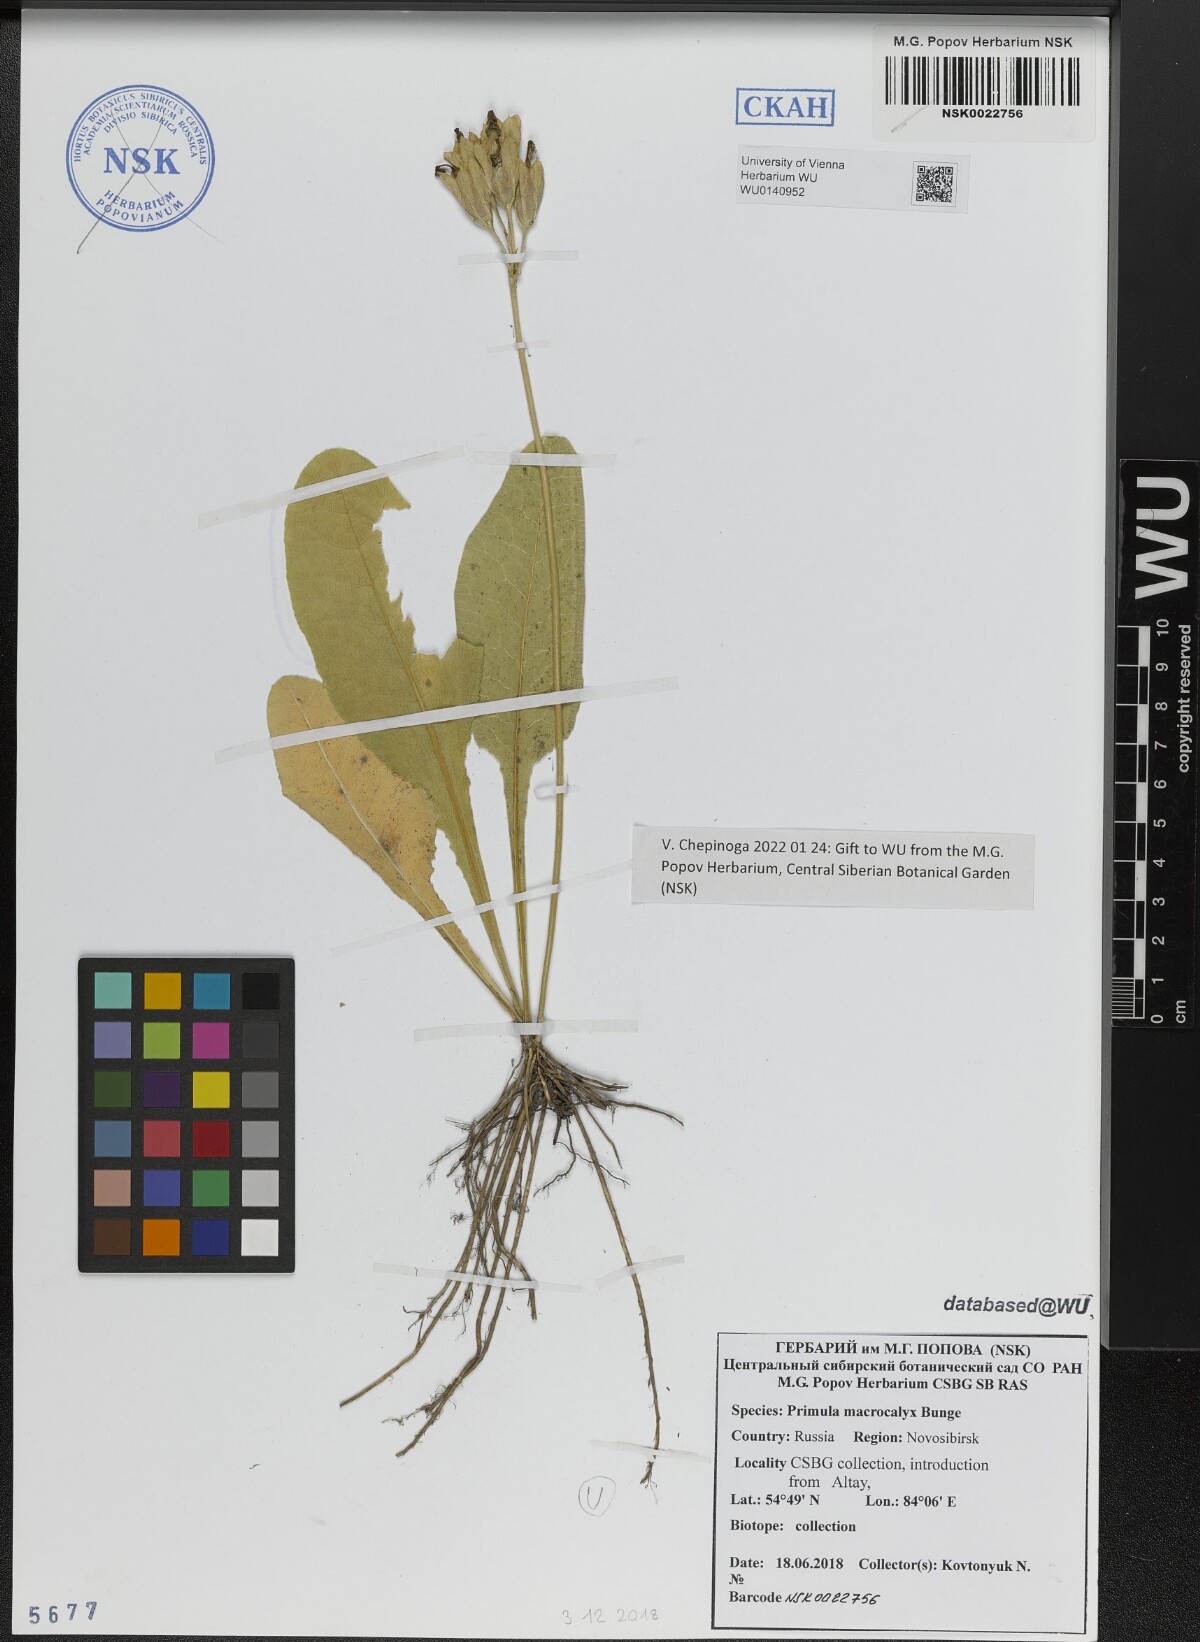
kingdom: Plantae
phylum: Tracheophyta
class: Magnoliopsida
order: Ericales
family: Primulaceae
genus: Primula
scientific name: Primula veris
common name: Cowslip
